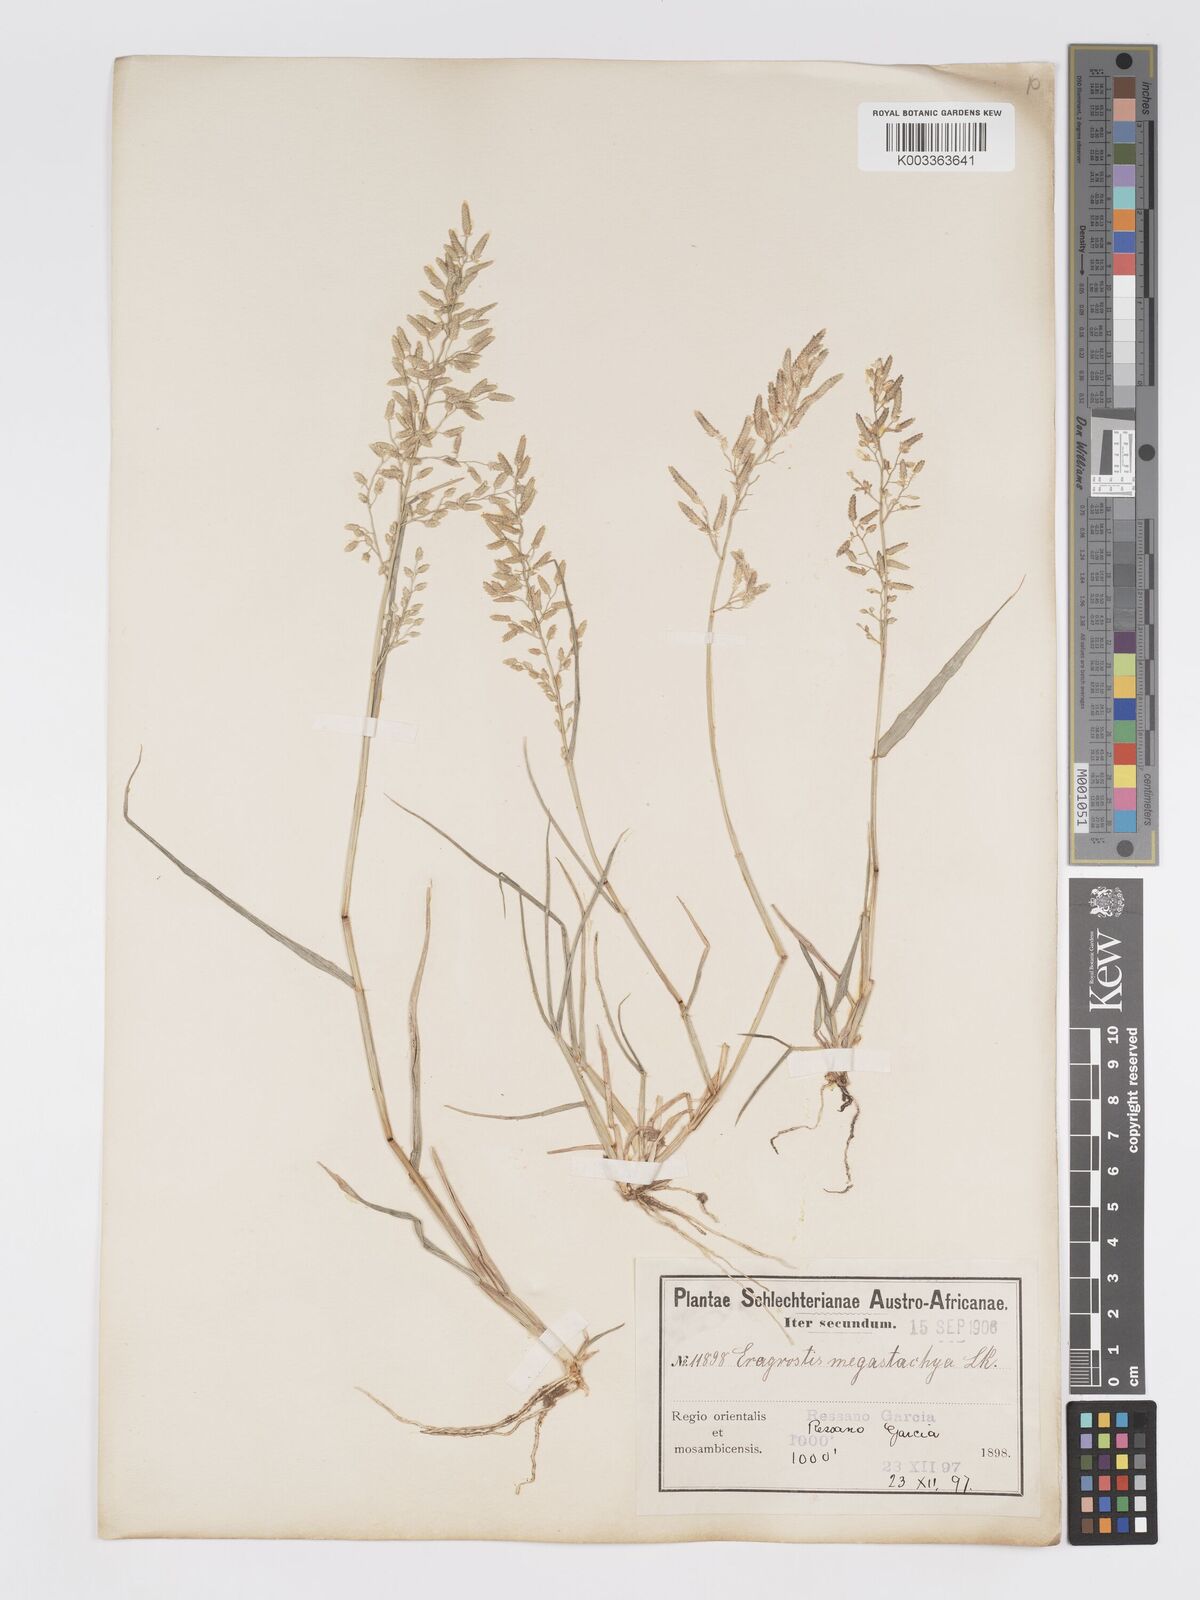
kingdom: Plantae
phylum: Tracheophyta
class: Liliopsida
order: Poales
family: Poaceae
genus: Eragrostis
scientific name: Eragrostis cilianensis
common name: Stinkgrass
